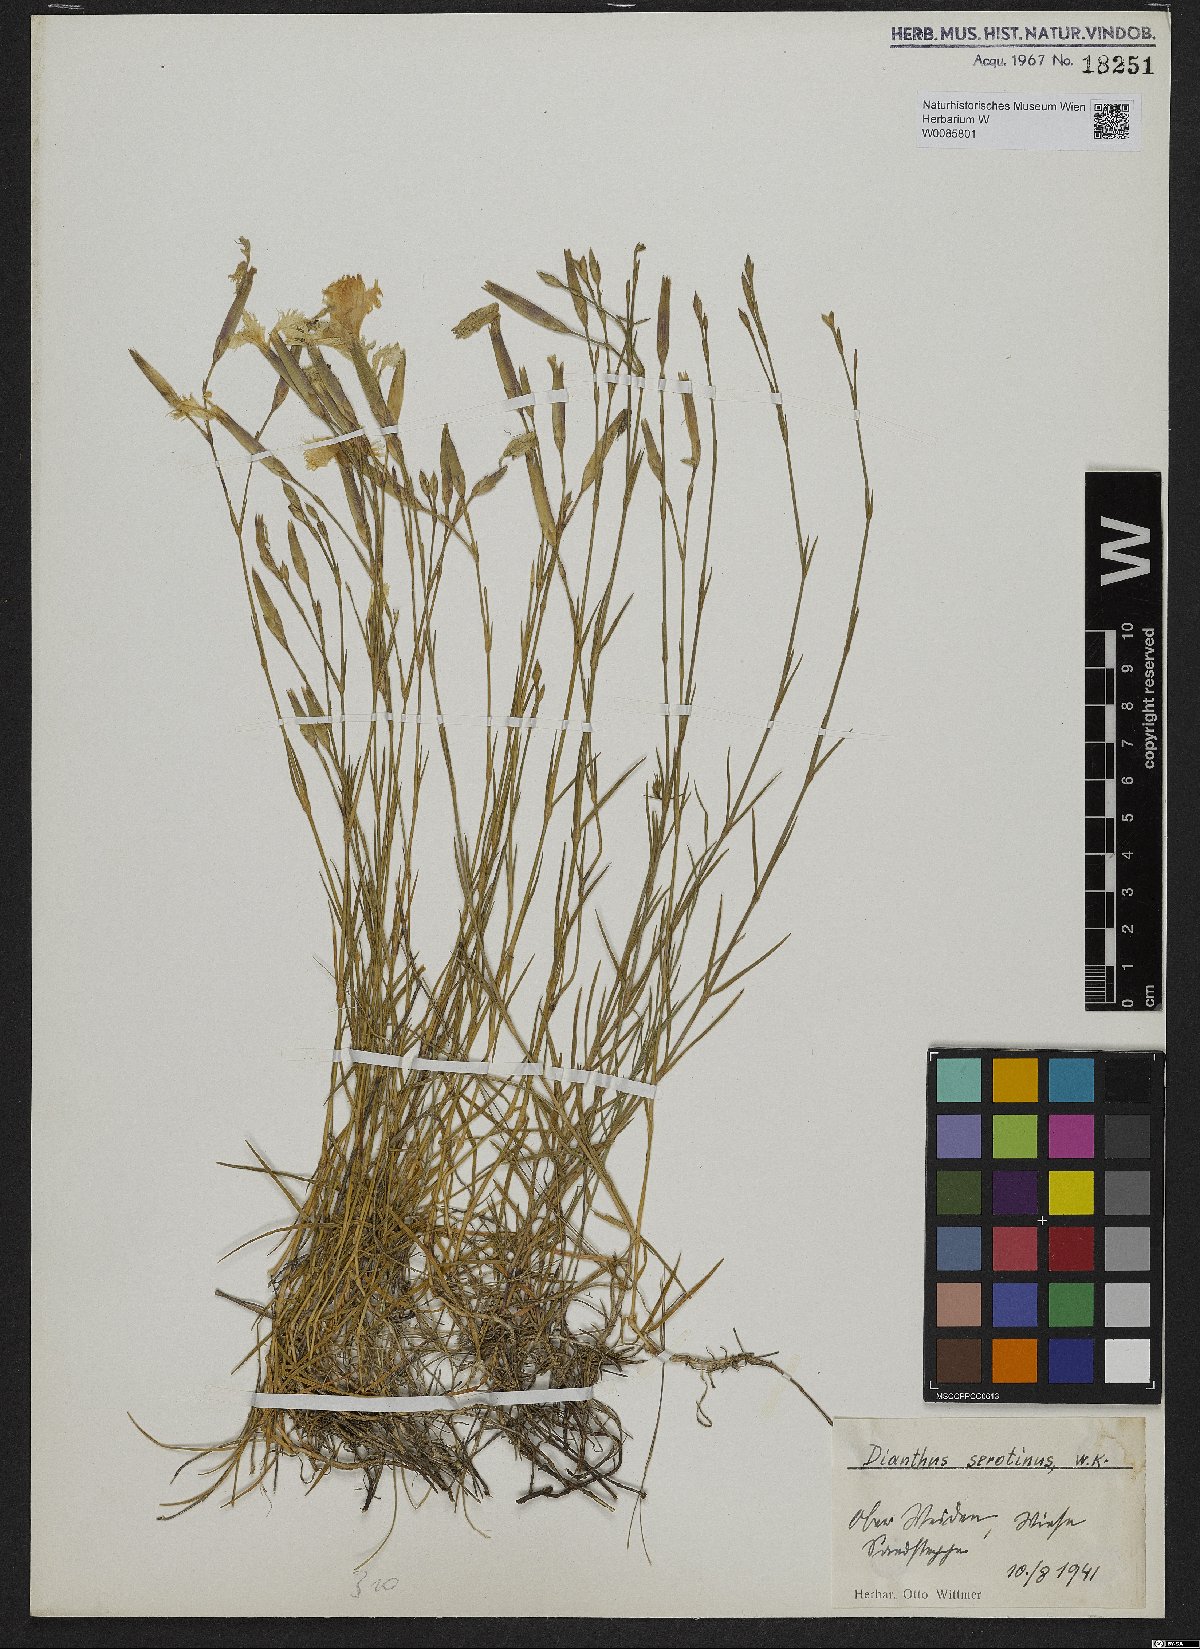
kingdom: Plantae
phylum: Tracheophyta
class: Magnoliopsida
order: Caryophyllales
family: Caryophyllaceae
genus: Dianthus
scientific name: Dianthus serotinus
